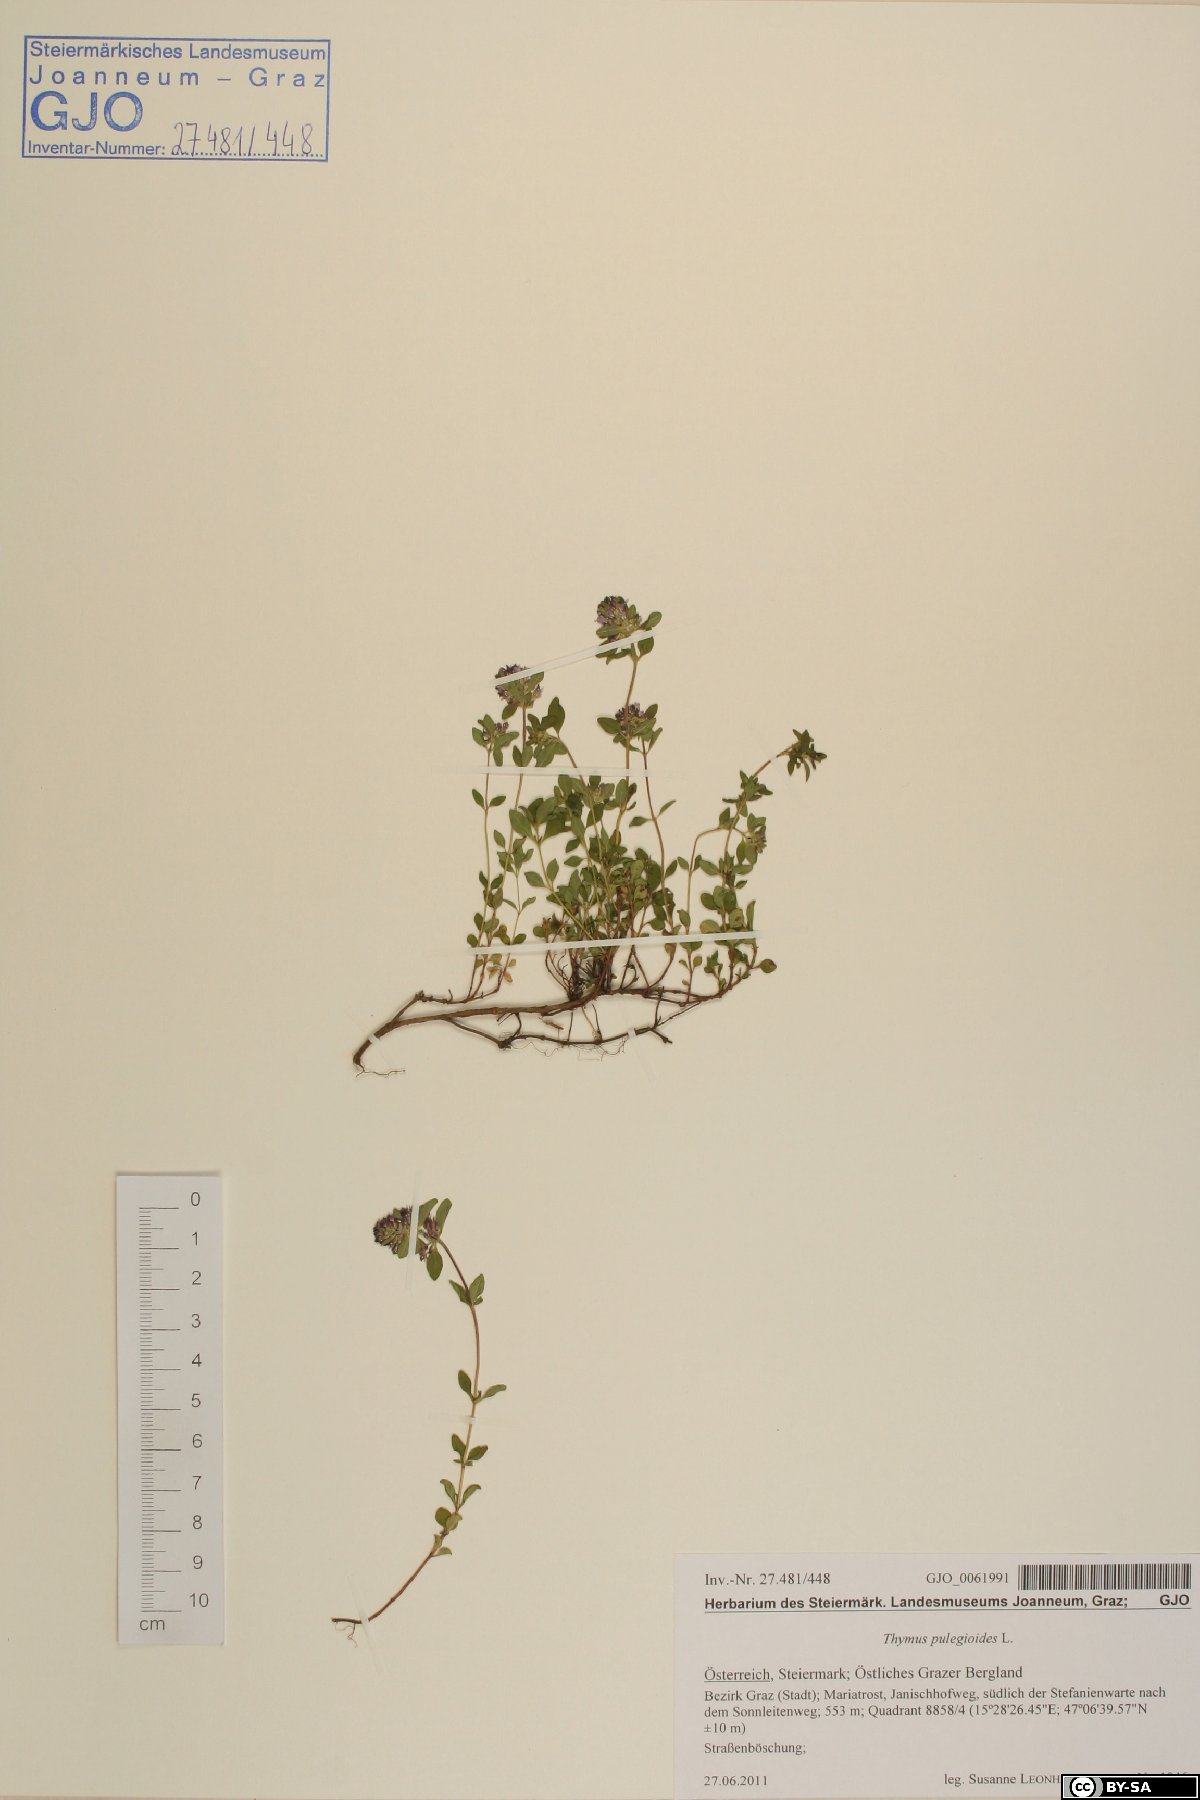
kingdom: Plantae
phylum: Tracheophyta
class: Magnoliopsida
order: Lamiales
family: Lamiaceae
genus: Thymus
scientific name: Thymus pulegioides
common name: Large thyme
